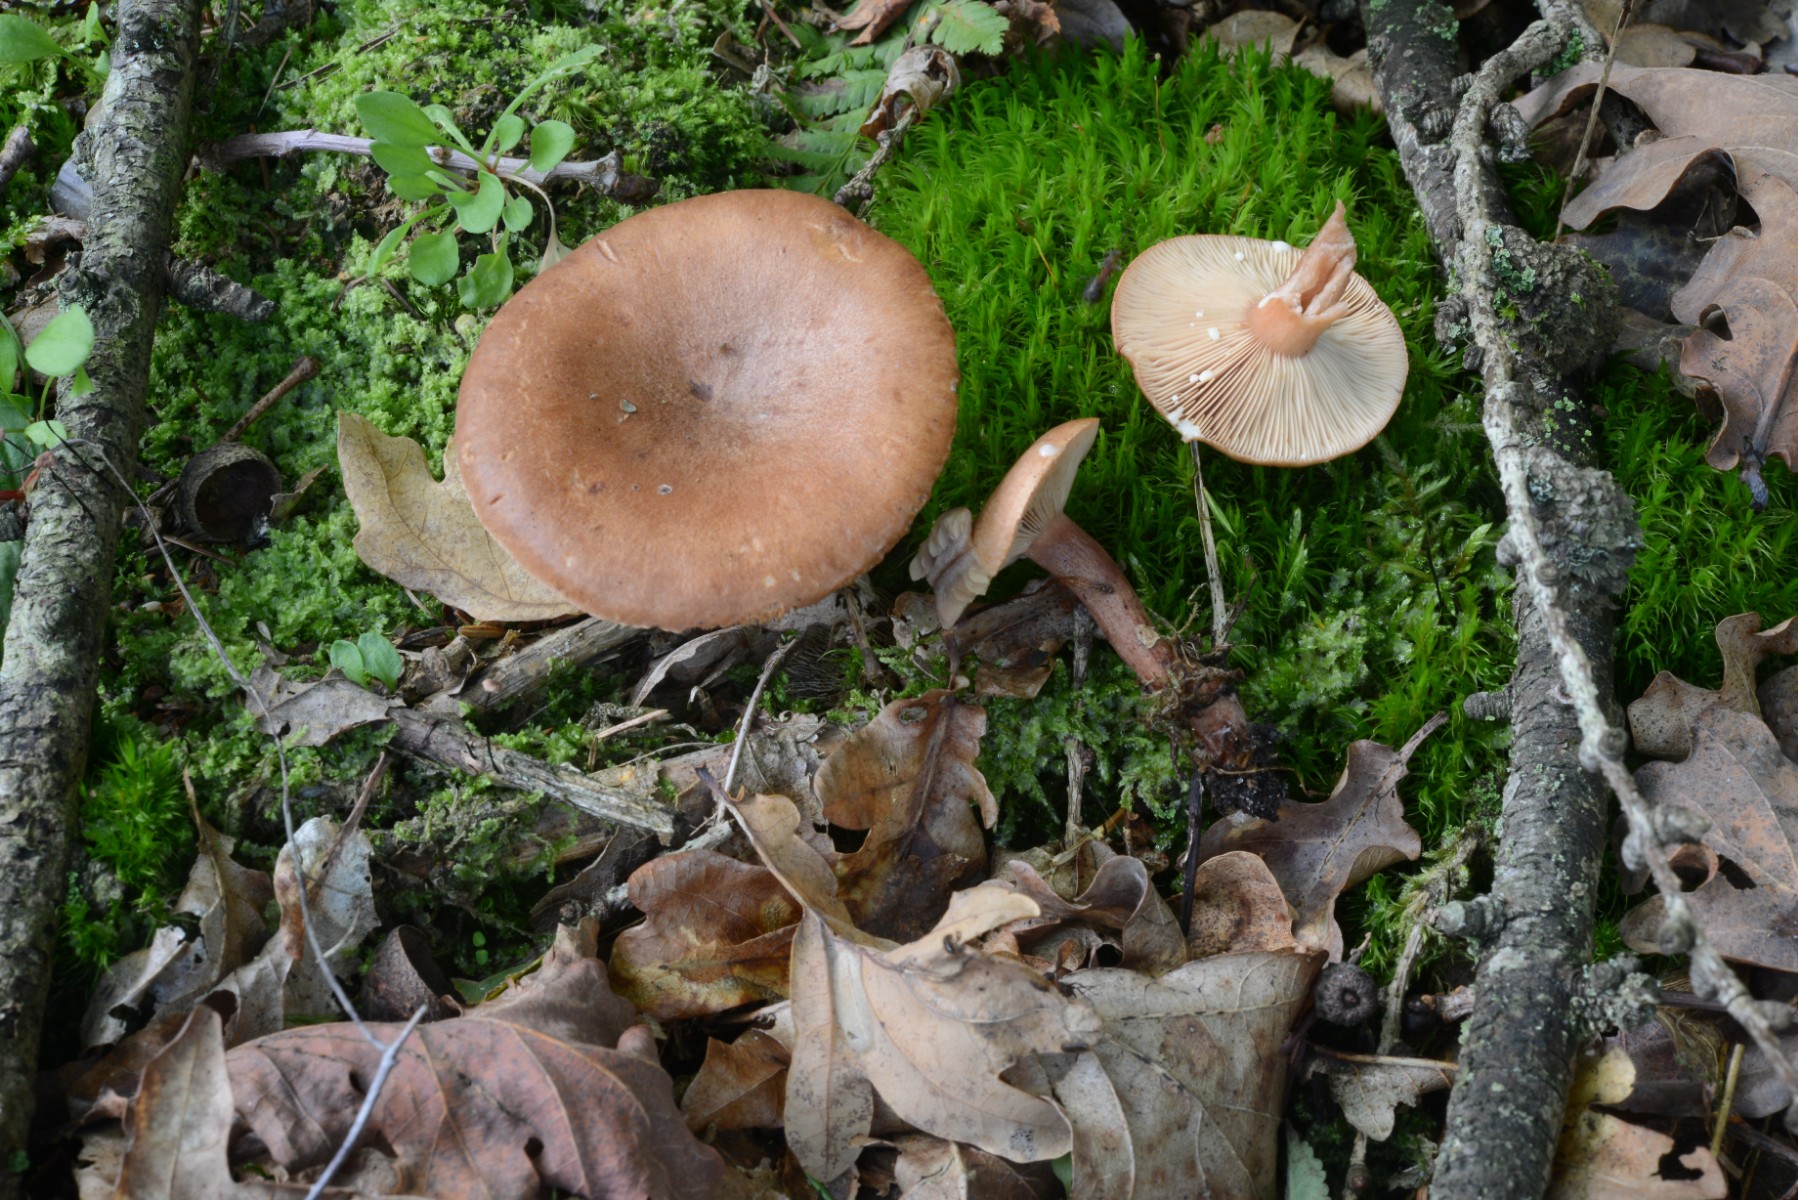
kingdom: Fungi
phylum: Basidiomycota
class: Agaricomycetes
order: Russulales
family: Russulaceae
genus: Lactarius
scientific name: Lactarius camphoratus
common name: kamfer-mælkehat
